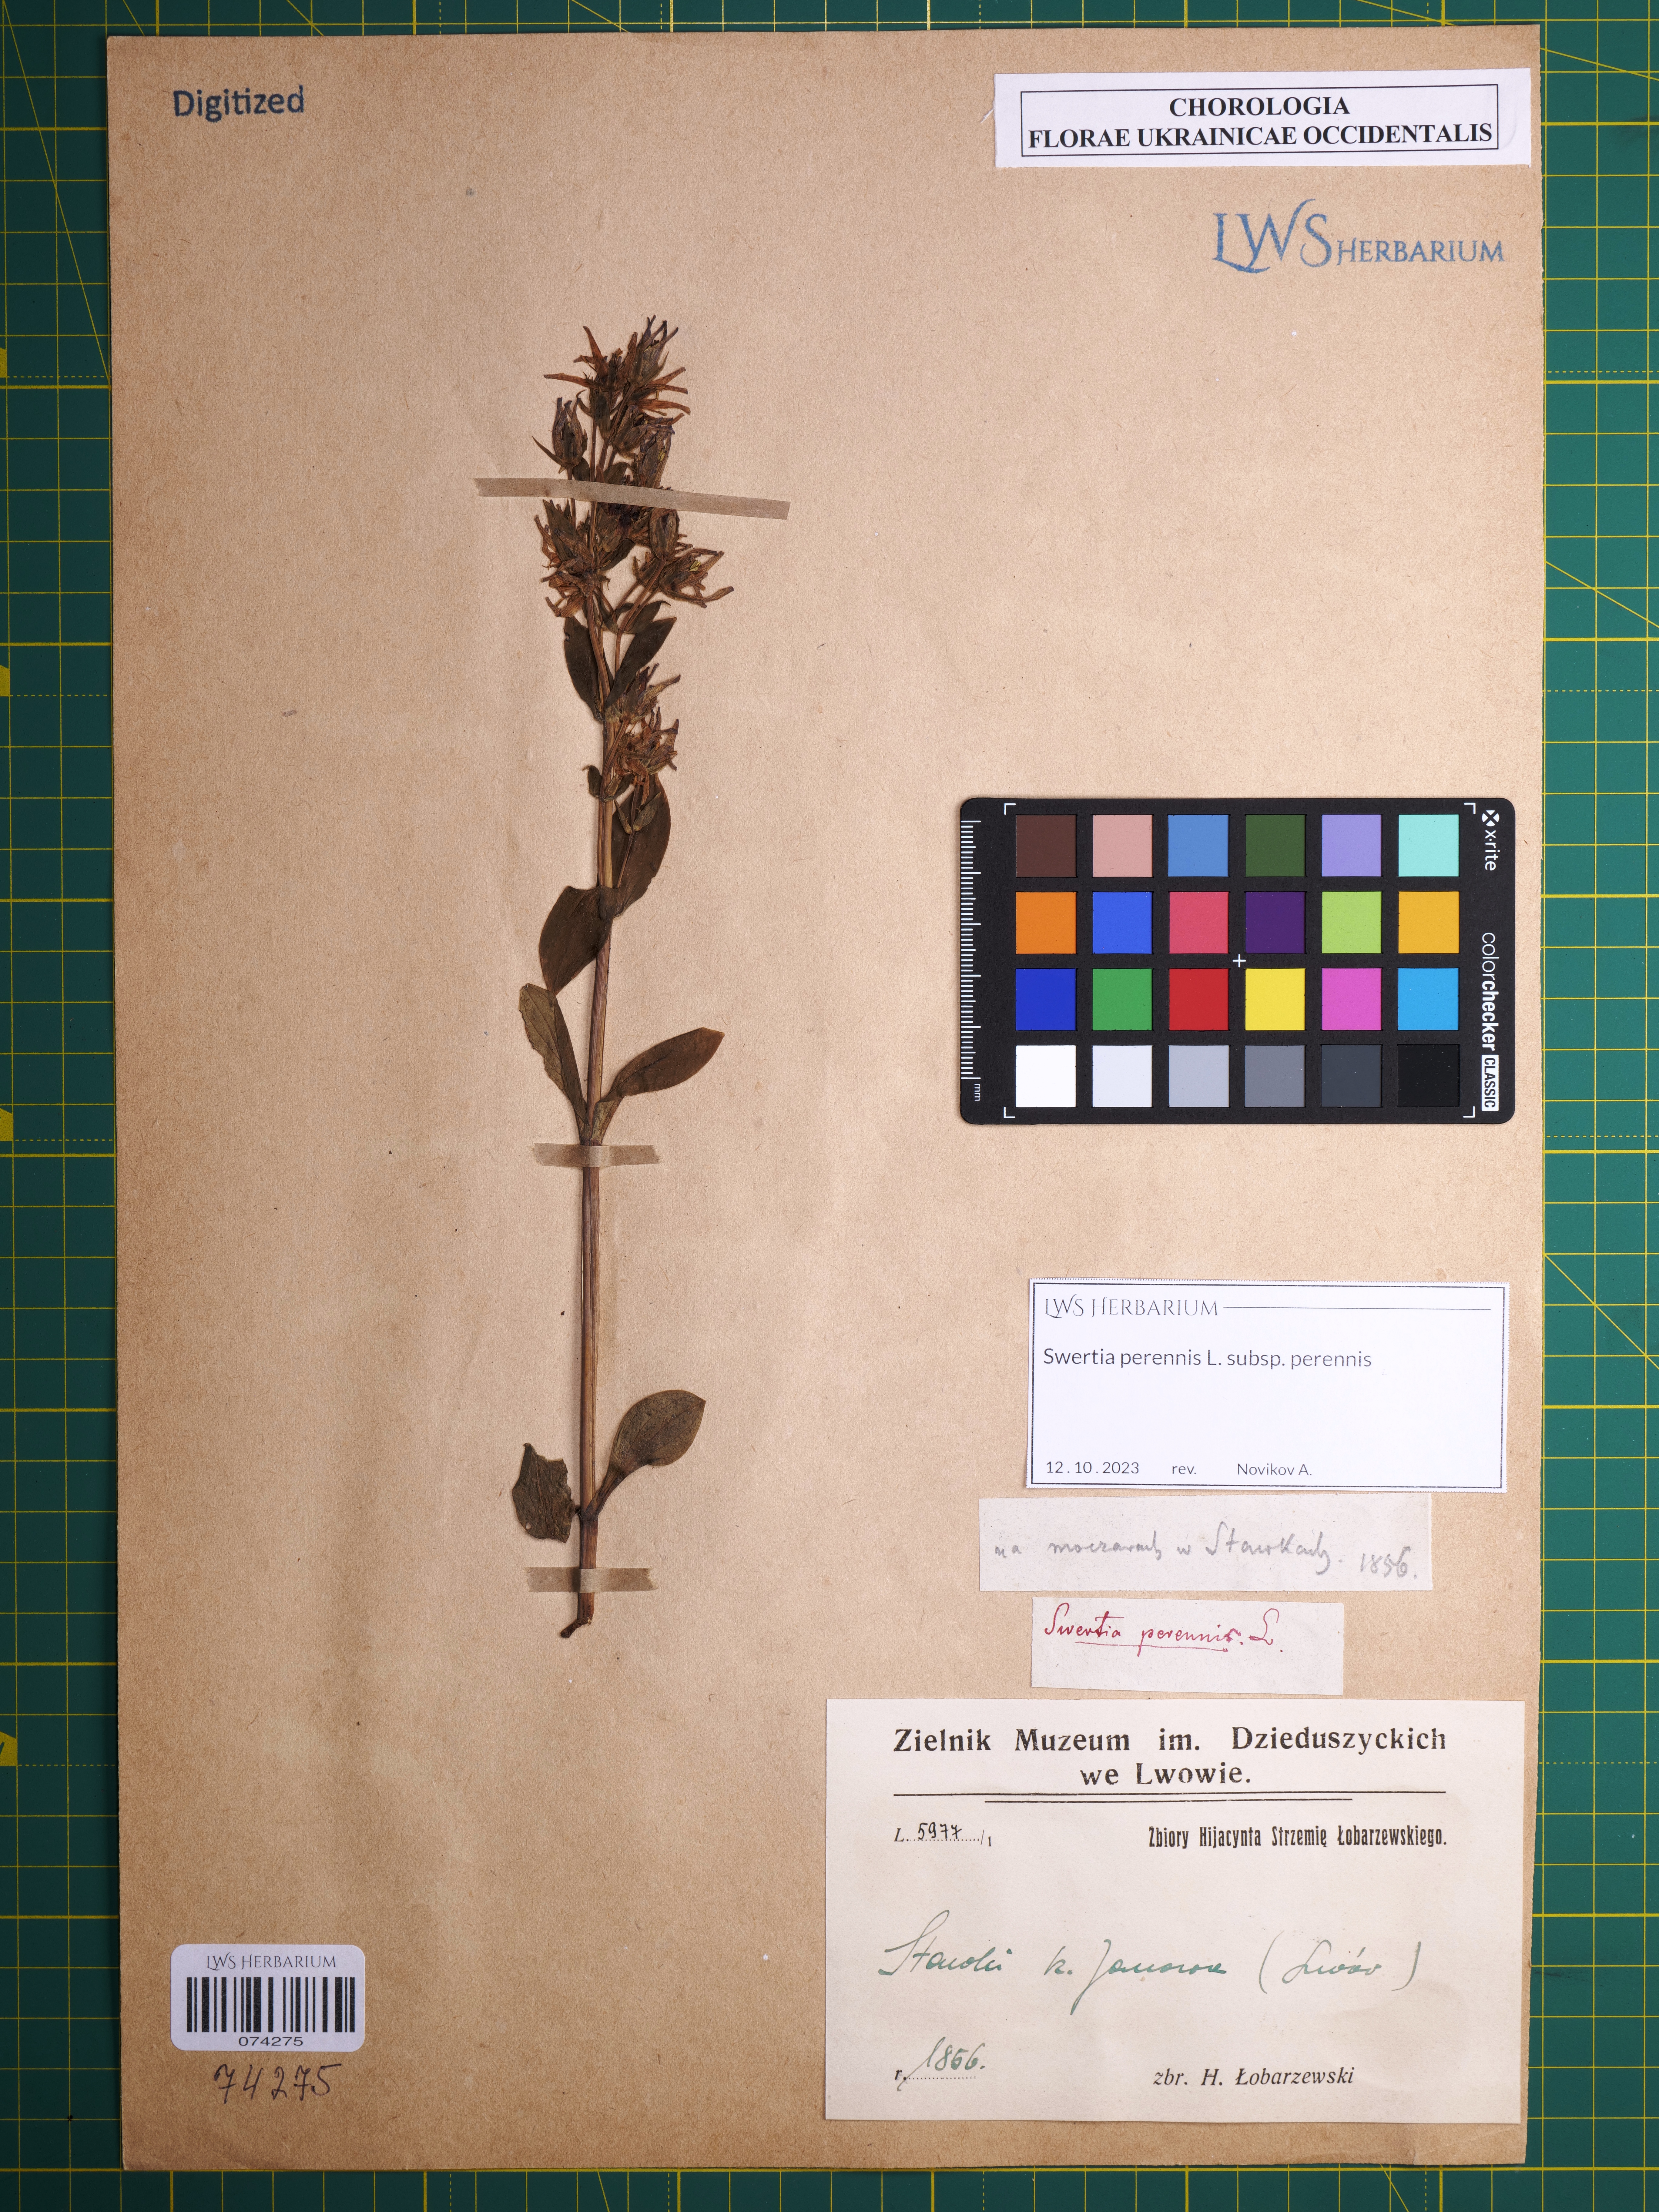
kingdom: Plantae
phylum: Tracheophyta
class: Magnoliopsida
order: Gentianales
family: Gentianaceae
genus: Swertia
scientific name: Swertia perennis
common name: Alpine bog swertia
